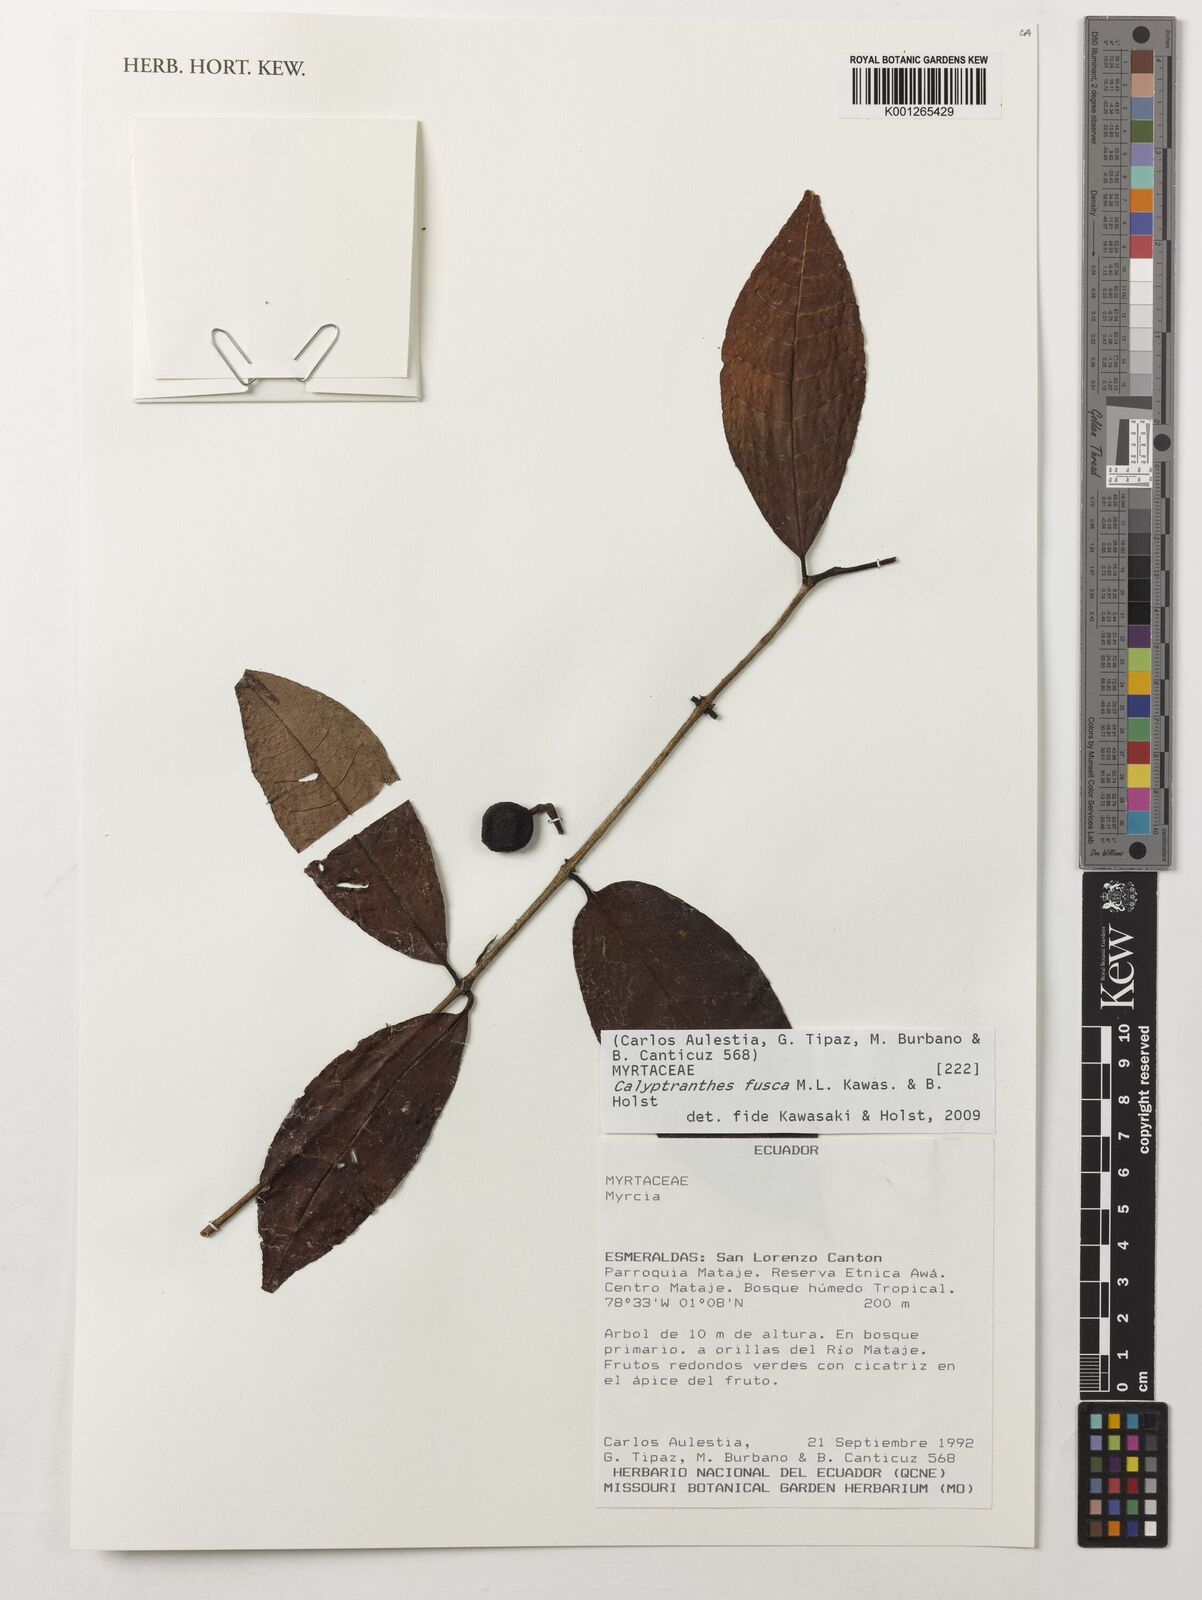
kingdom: Plantae
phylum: Tracheophyta
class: Magnoliopsida
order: Myrtales
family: Myrtaceae
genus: Myrcia
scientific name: Myrcia neofusca
